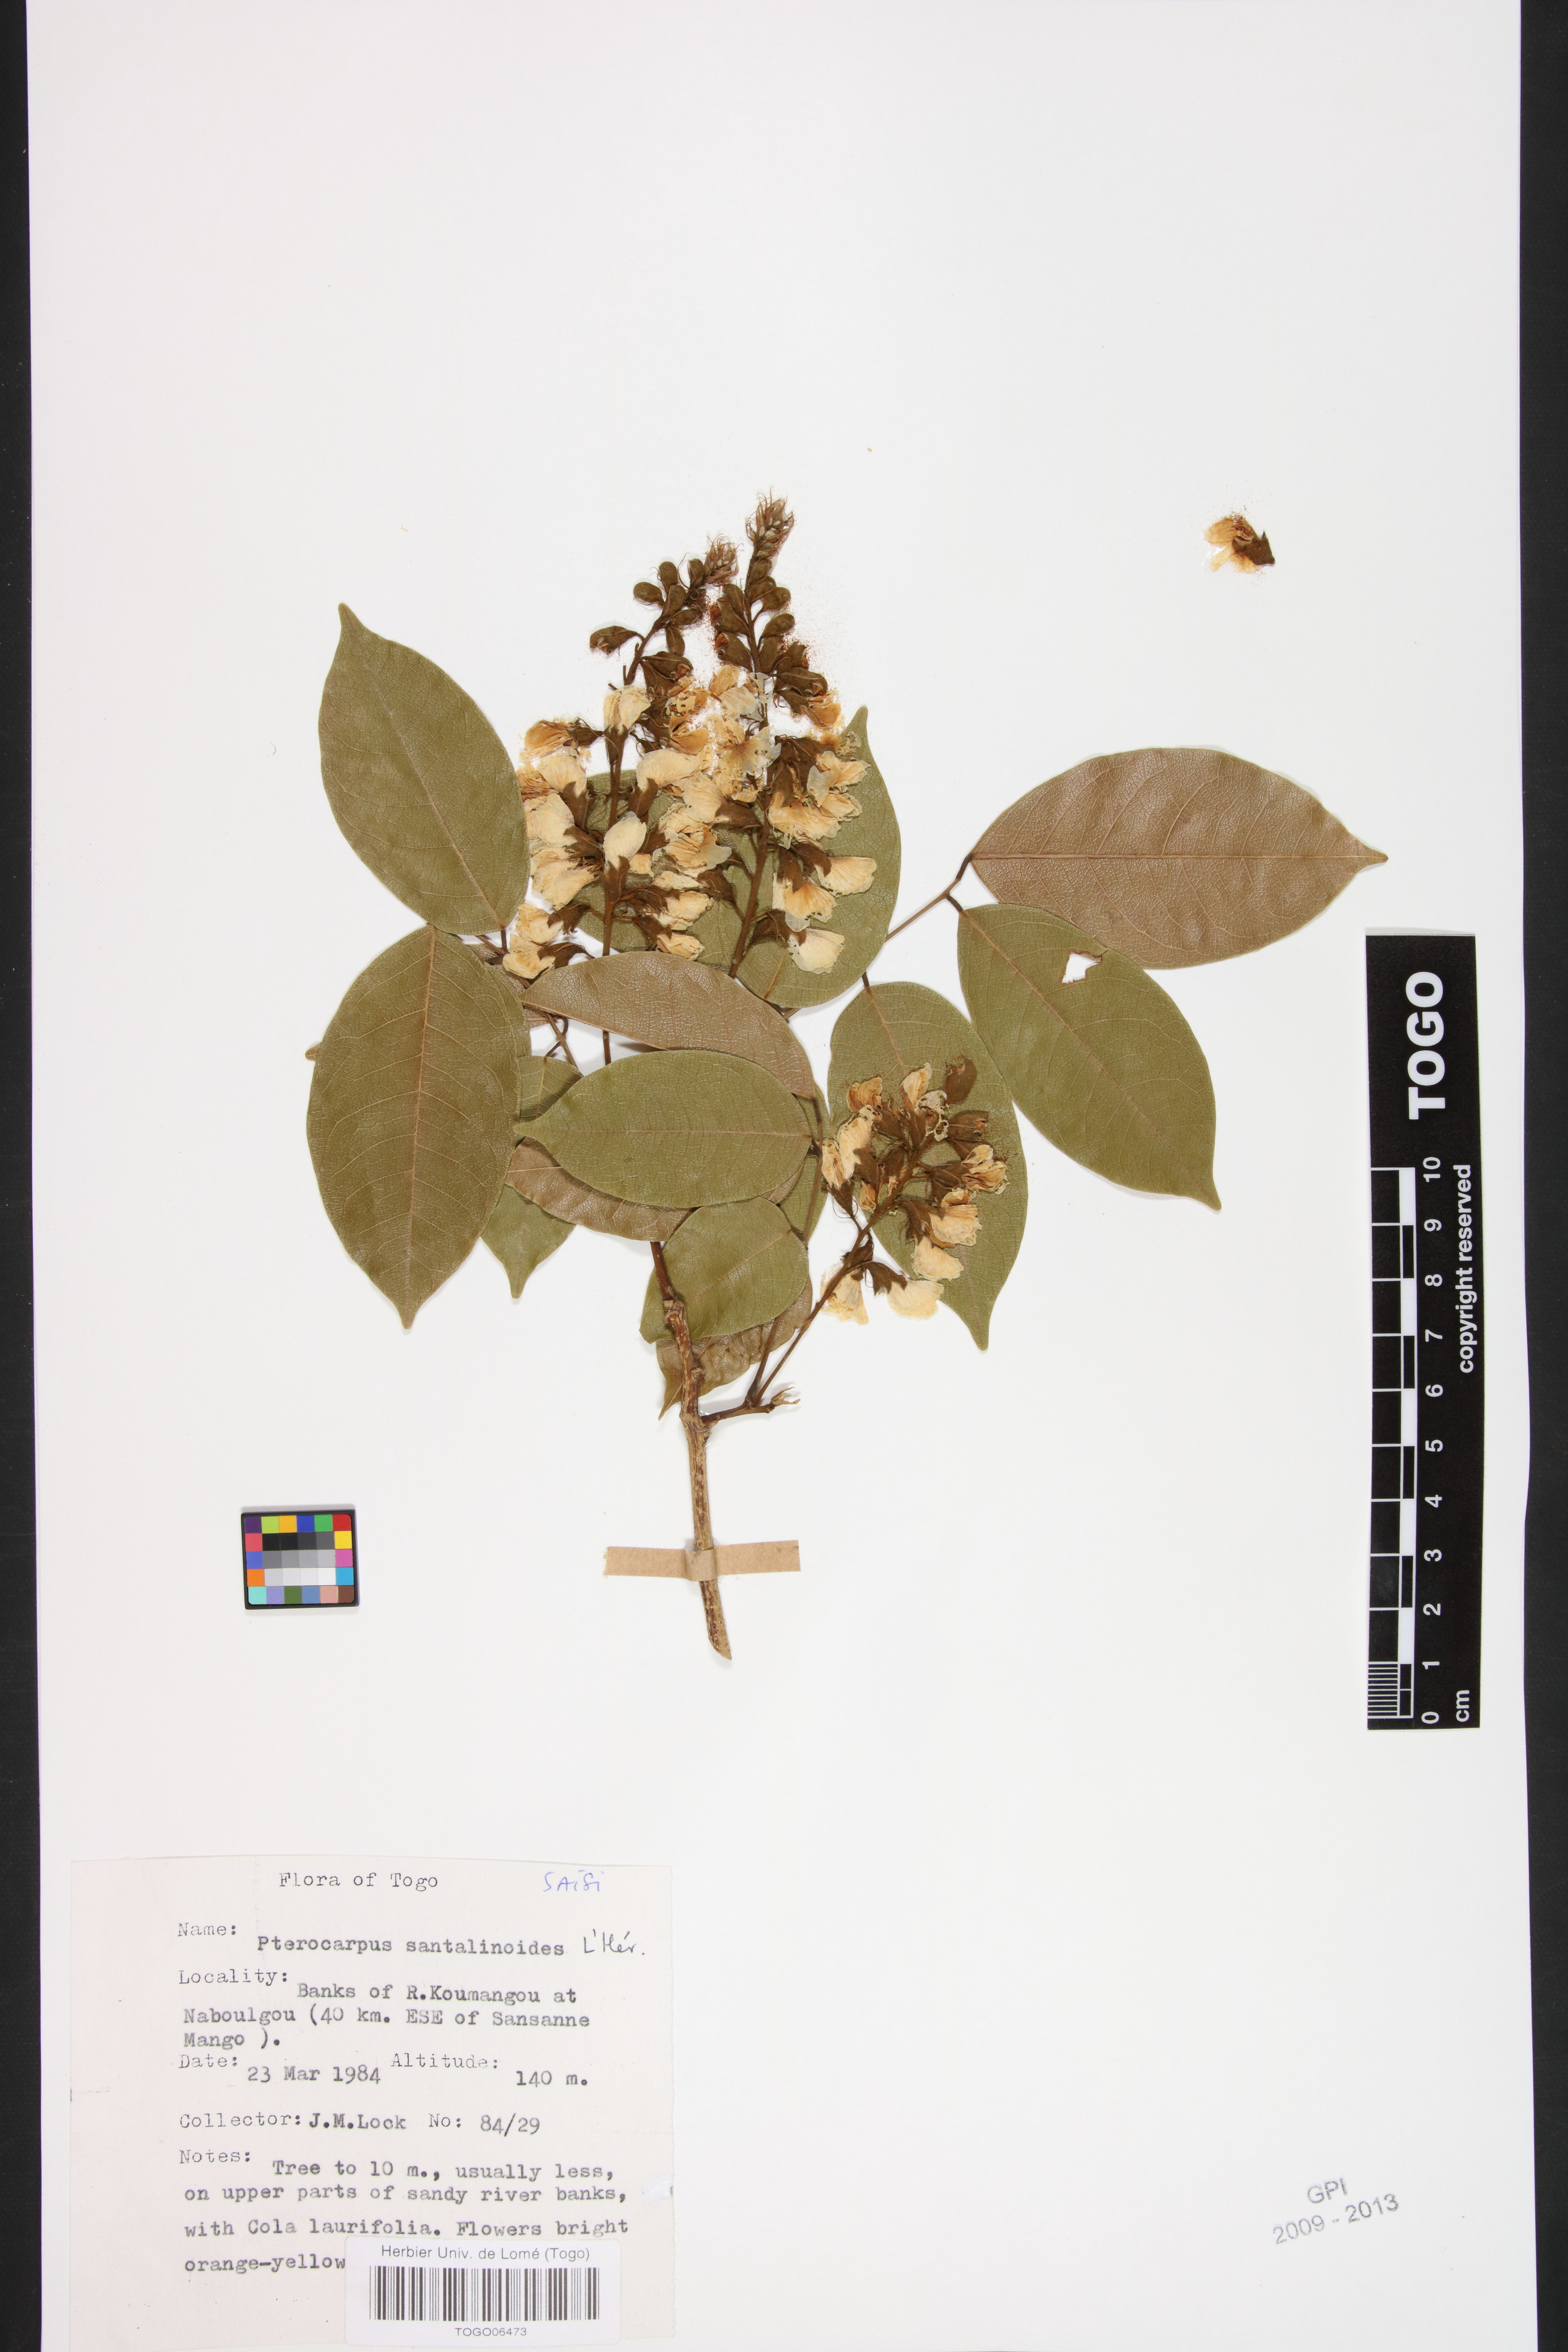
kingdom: Plantae
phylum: Tracheophyta
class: Magnoliopsida
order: Fabales
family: Fabaceae
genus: Pterocarpus
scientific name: Pterocarpus santalinoides
